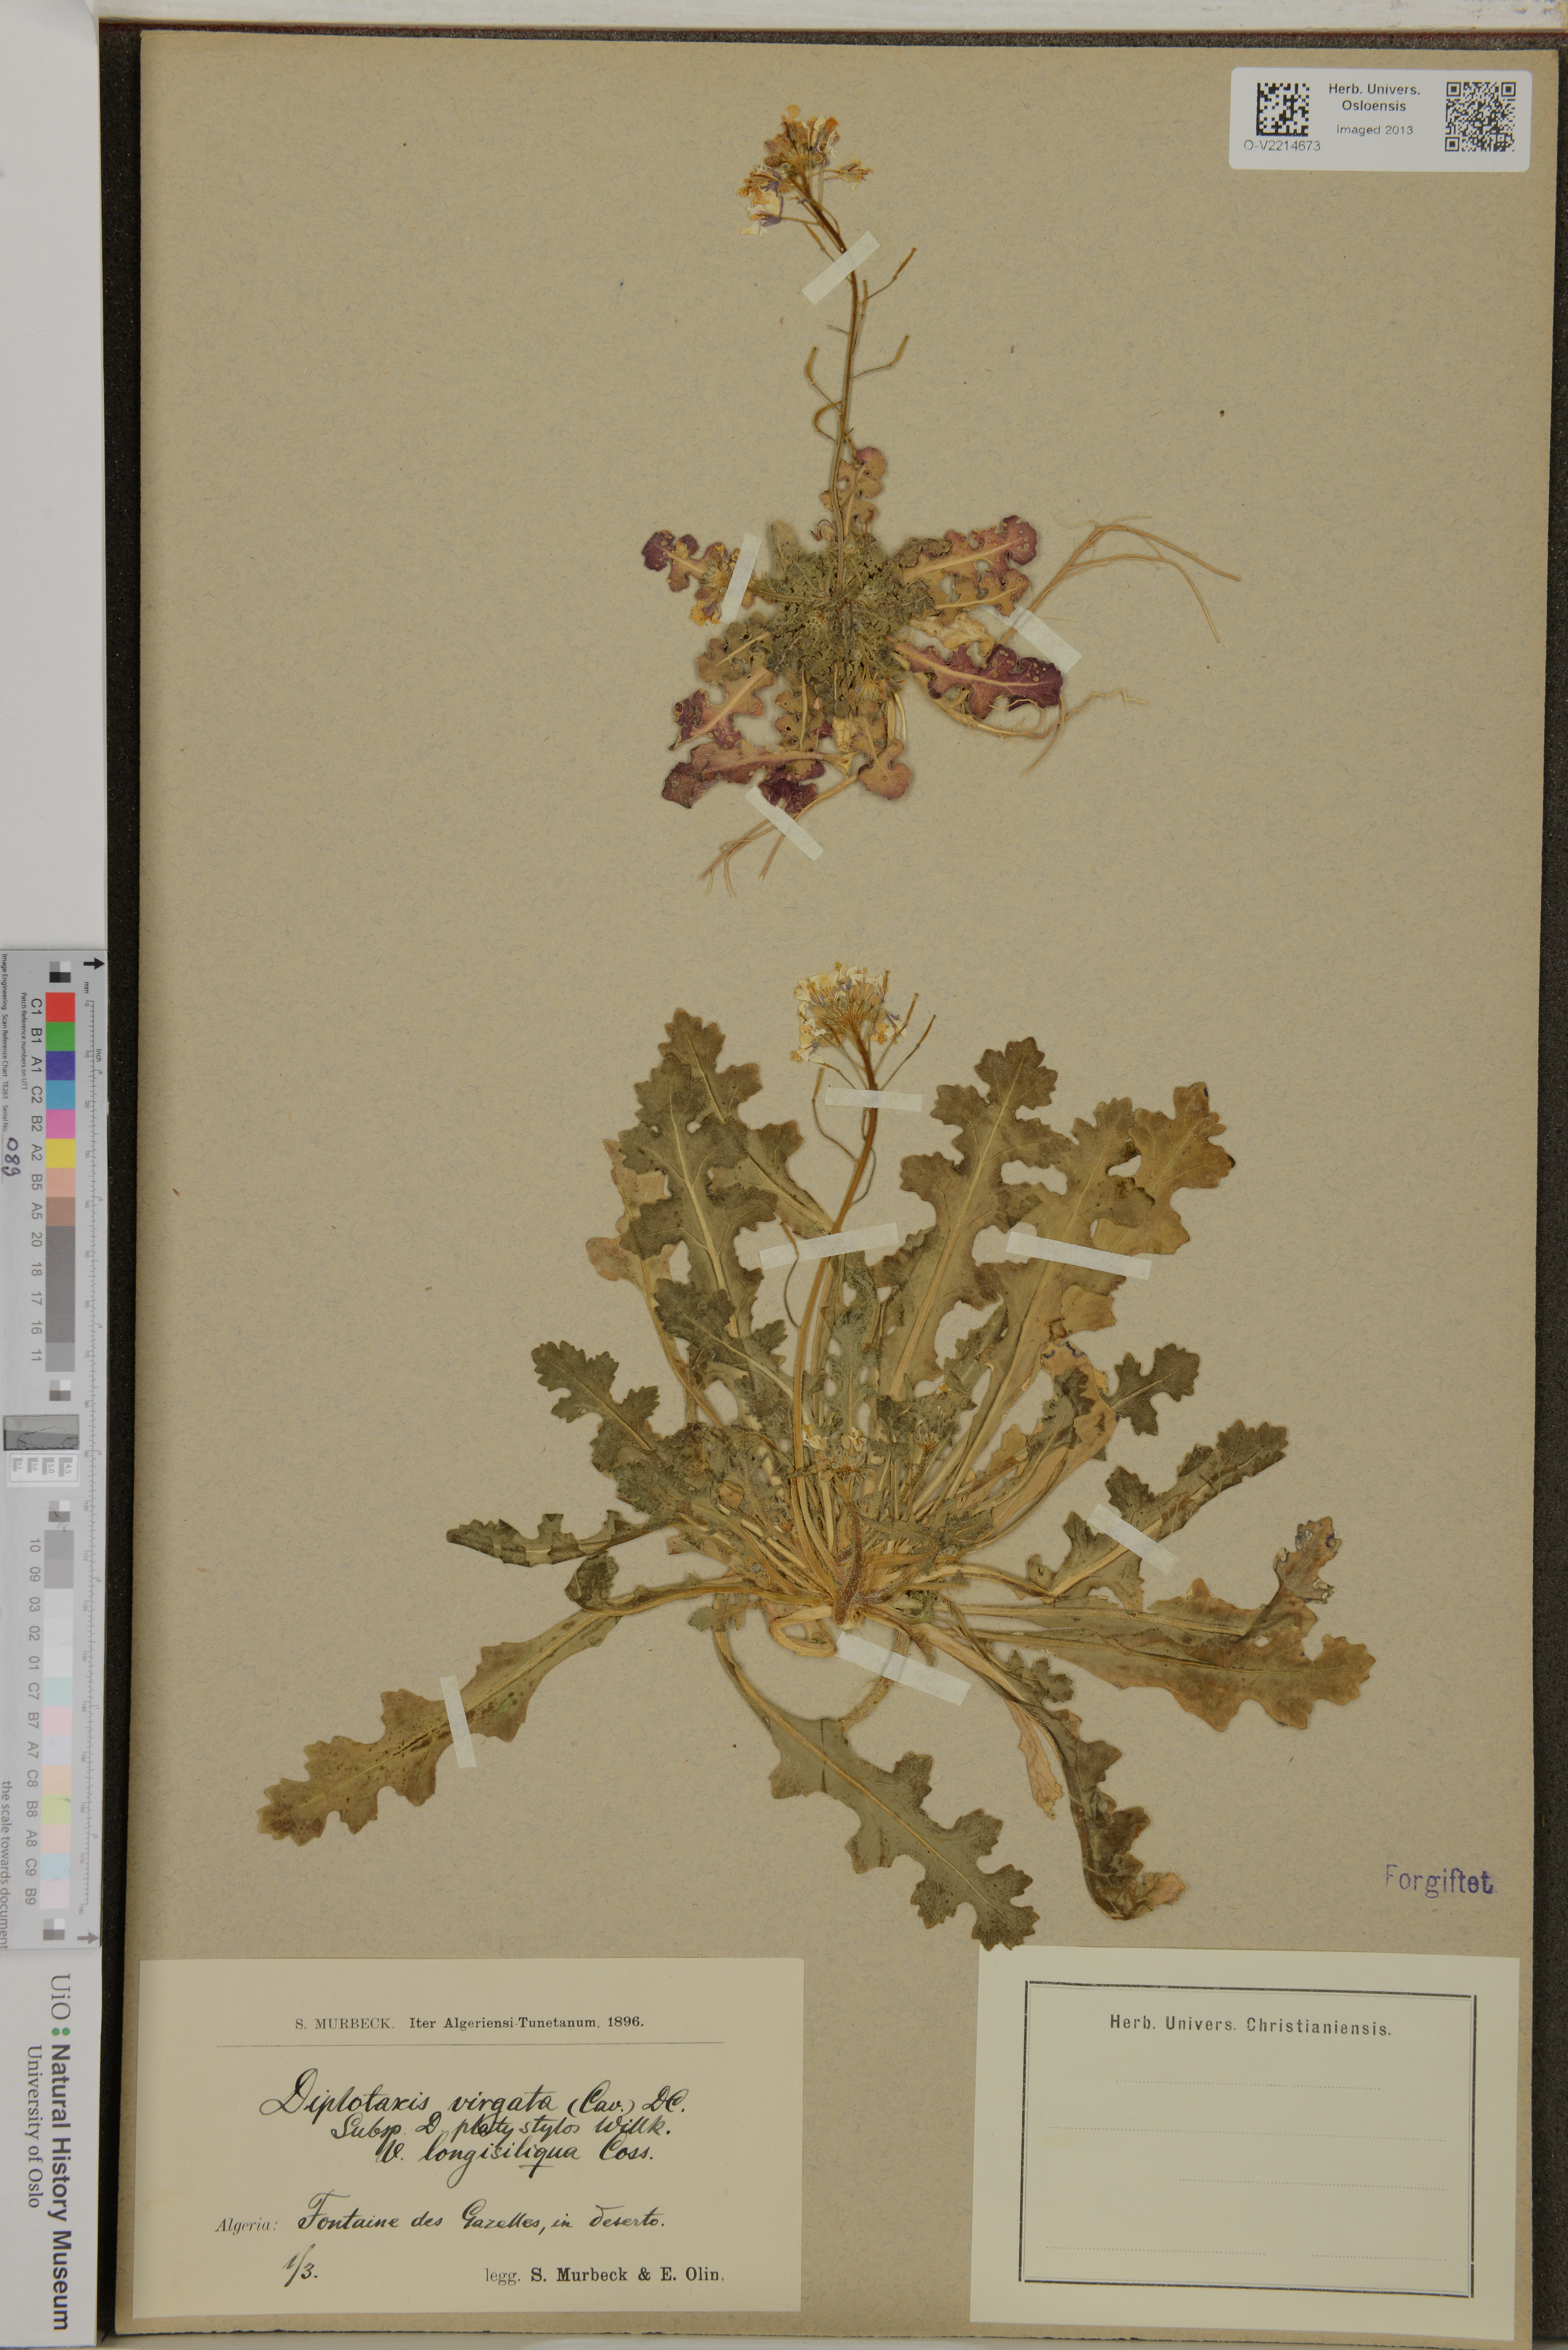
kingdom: Plantae
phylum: Tracheophyta
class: Magnoliopsida
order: Brassicales
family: Brassicaceae
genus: Diplotaxis
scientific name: Diplotaxis virgata
